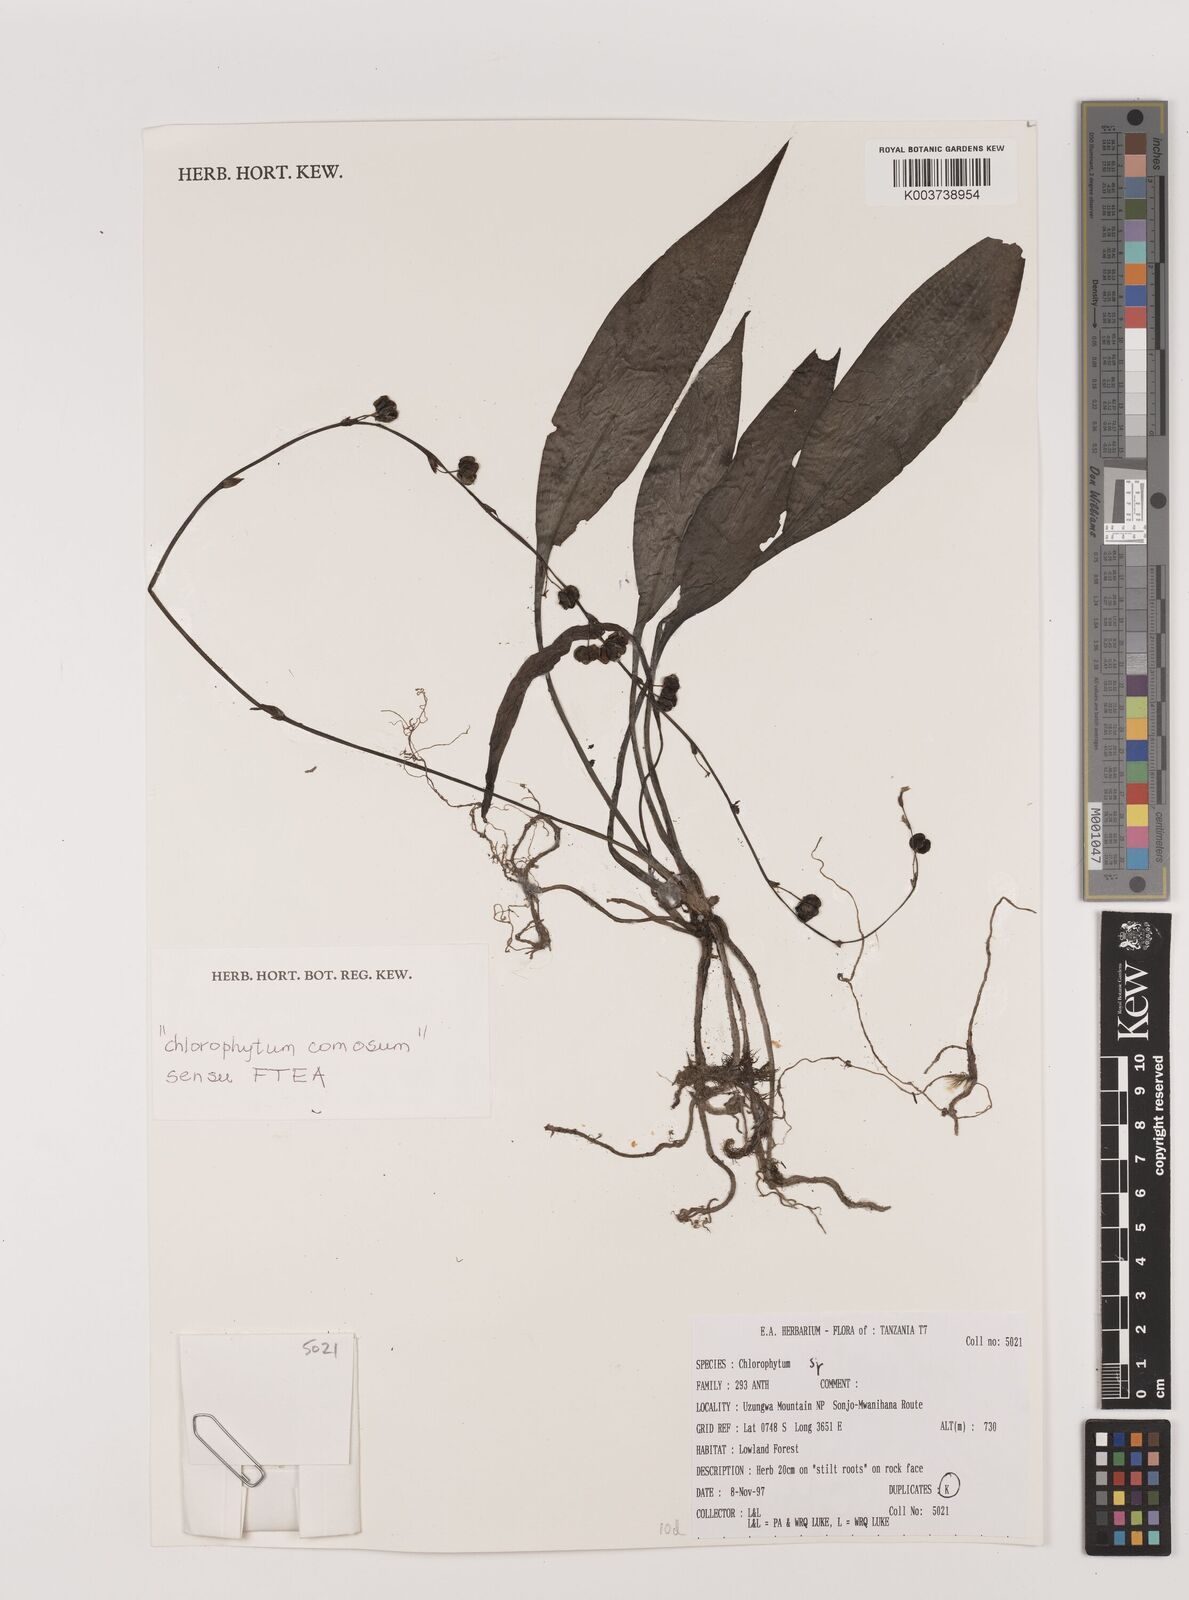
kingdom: Plantae
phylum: Tracheophyta
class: Liliopsida
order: Asparagales
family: Asparagaceae
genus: Chlorophytum
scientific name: Chlorophytum comosum
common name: Spider plant
